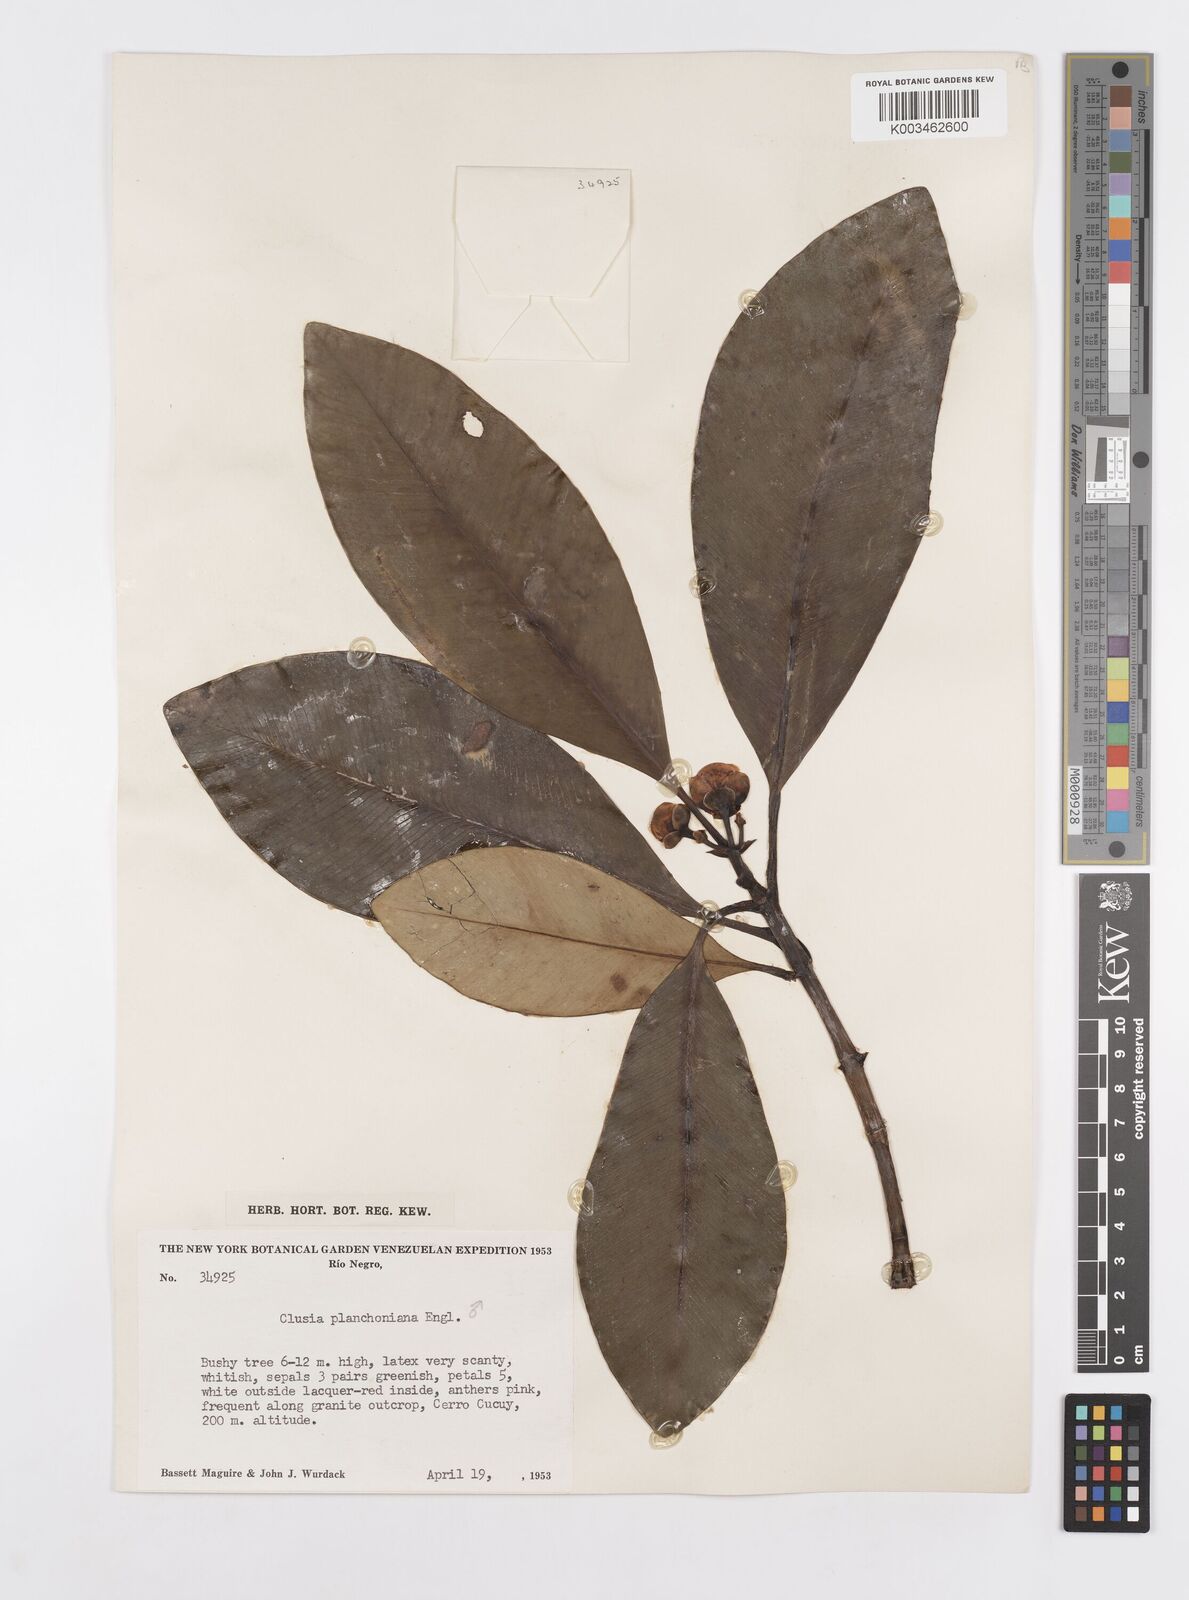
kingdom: Plantae
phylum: Tracheophyta
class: Magnoliopsida
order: Malpighiales
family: Clusiaceae
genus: Clusia
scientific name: Clusia planchoniana
